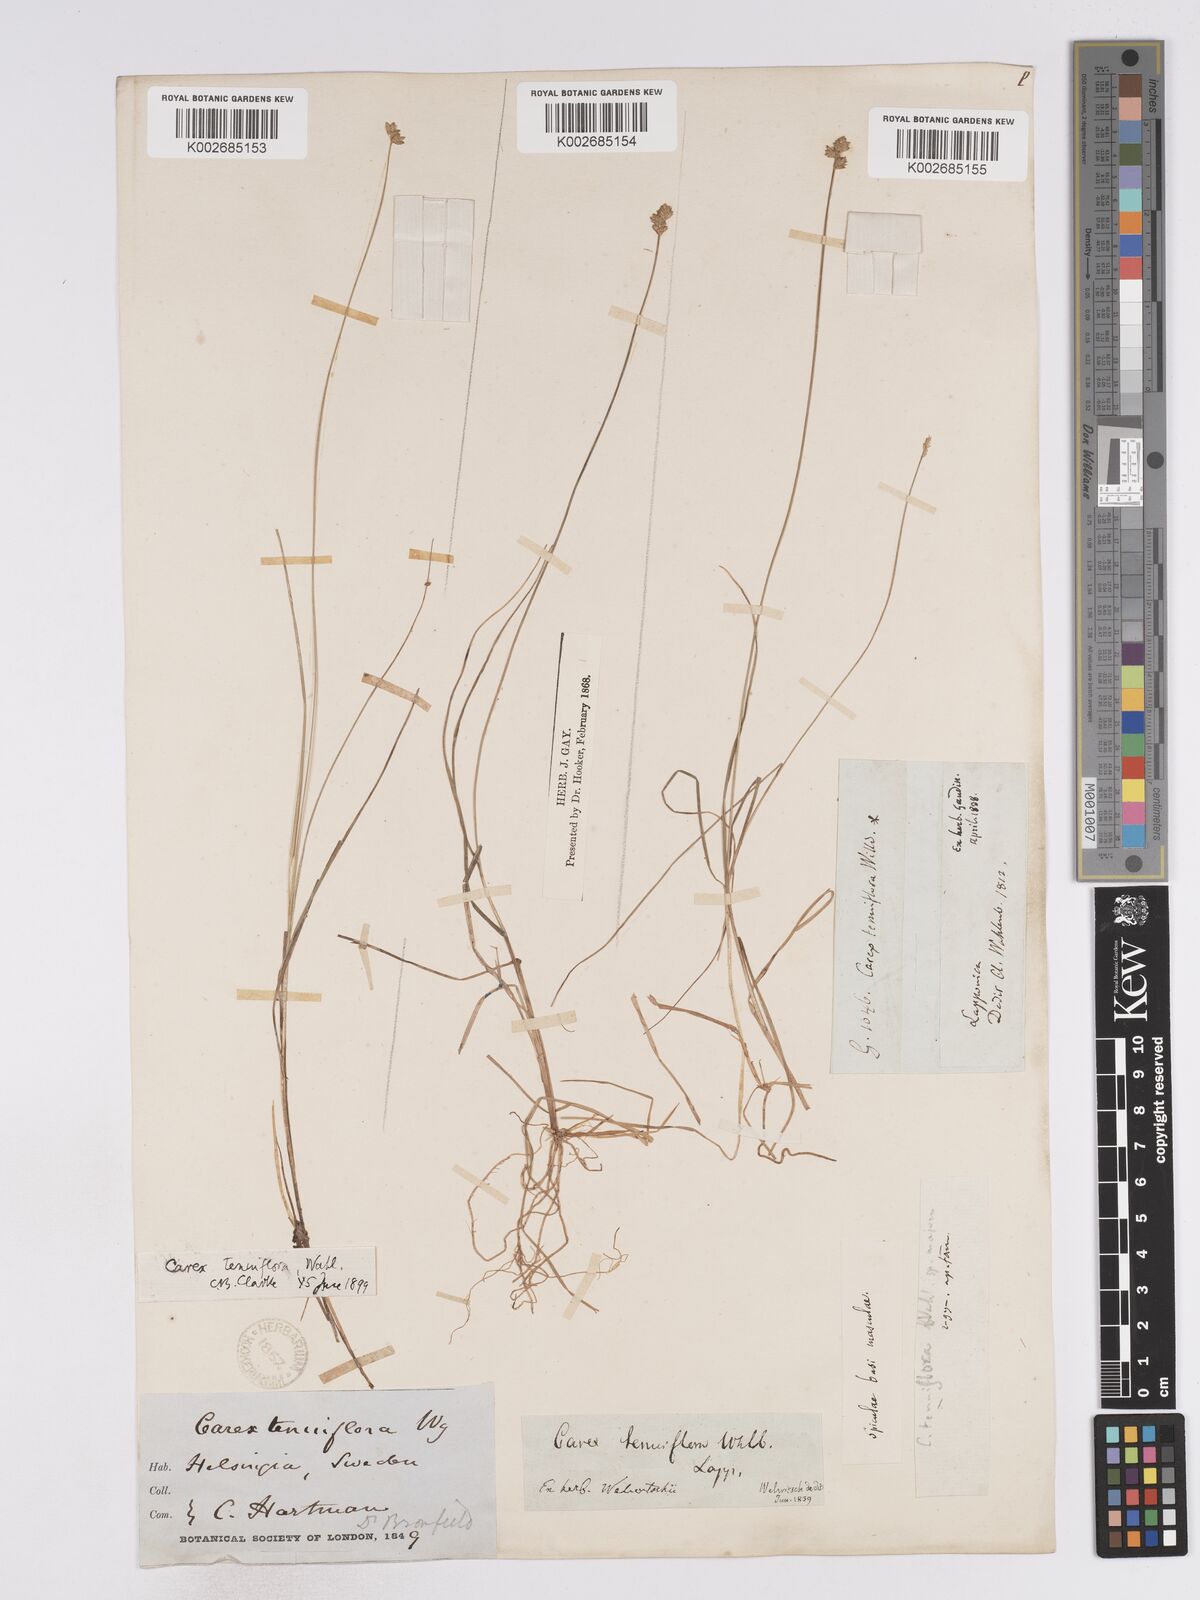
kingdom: Plantae
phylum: Tracheophyta
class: Liliopsida
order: Poales
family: Cyperaceae
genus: Carex
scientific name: Carex tenuiflora
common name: Sparse-flowered sedge
